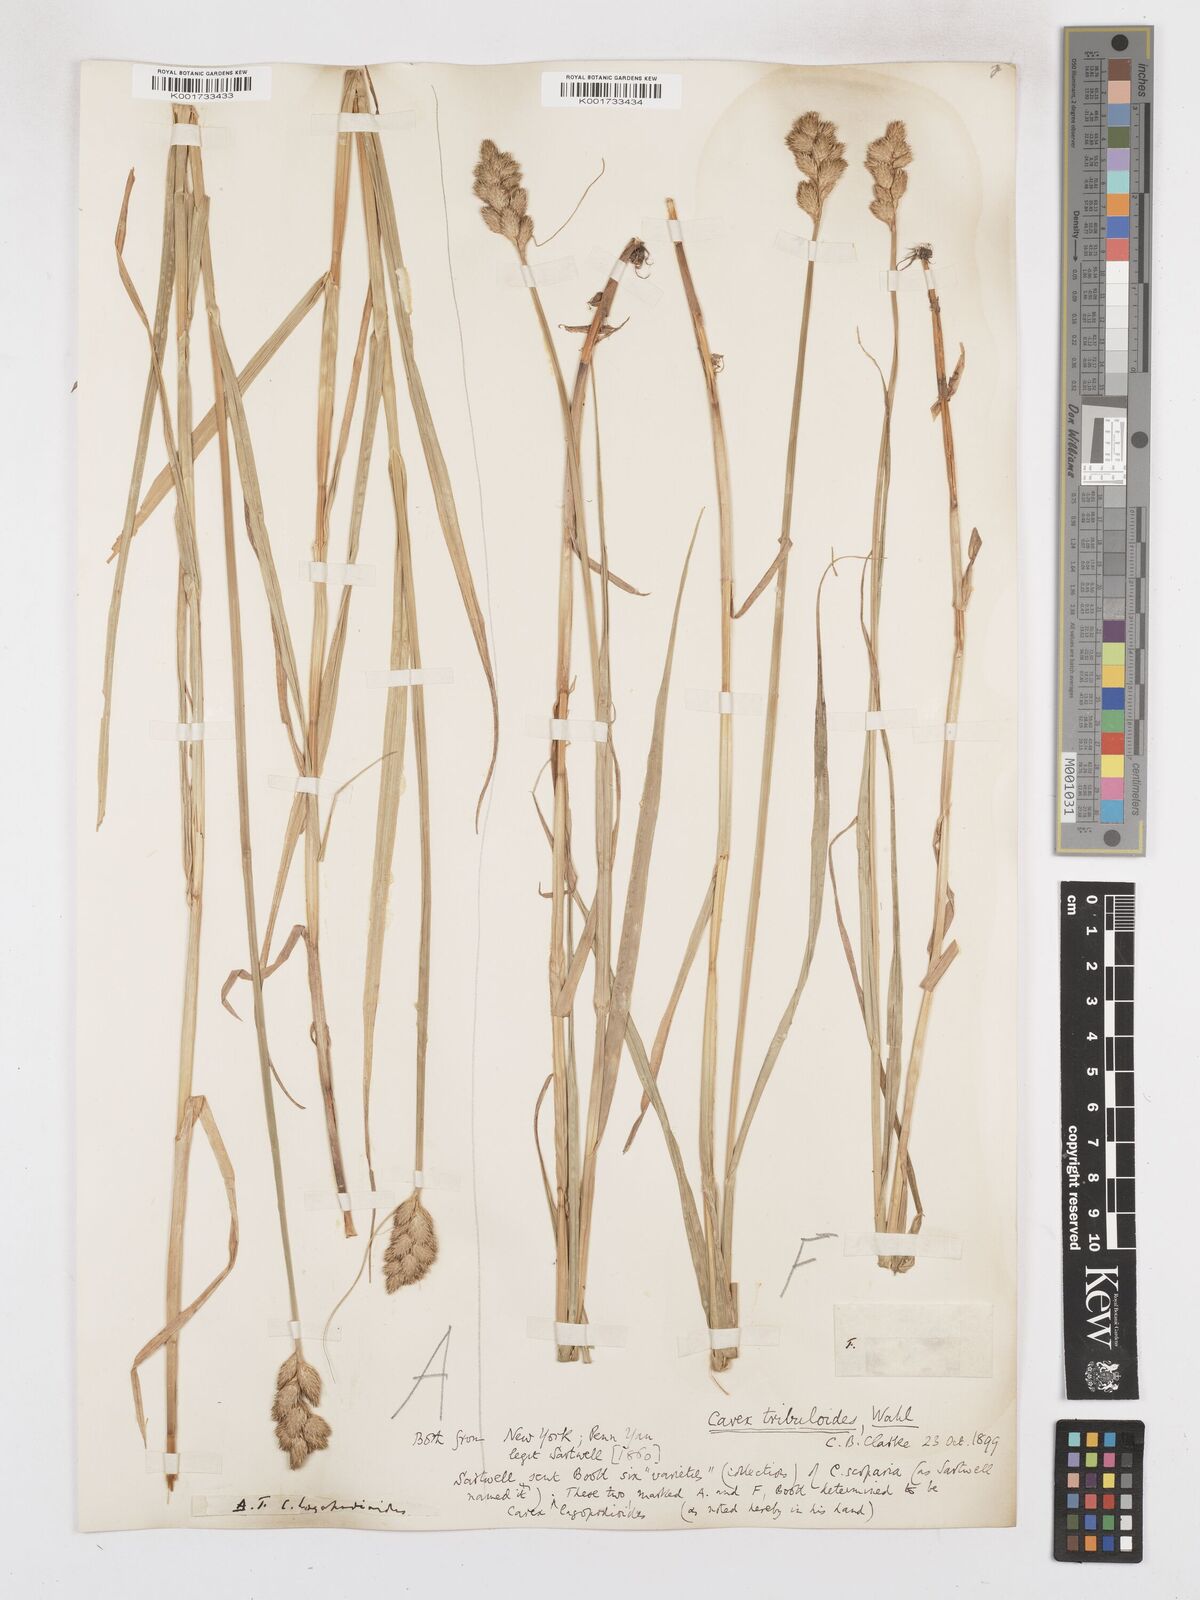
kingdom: Plantae
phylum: Tracheophyta
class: Liliopsida
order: Poales
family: Cyperaceae
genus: Carex
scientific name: Carex tribuloides
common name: Blunt broom sedge
